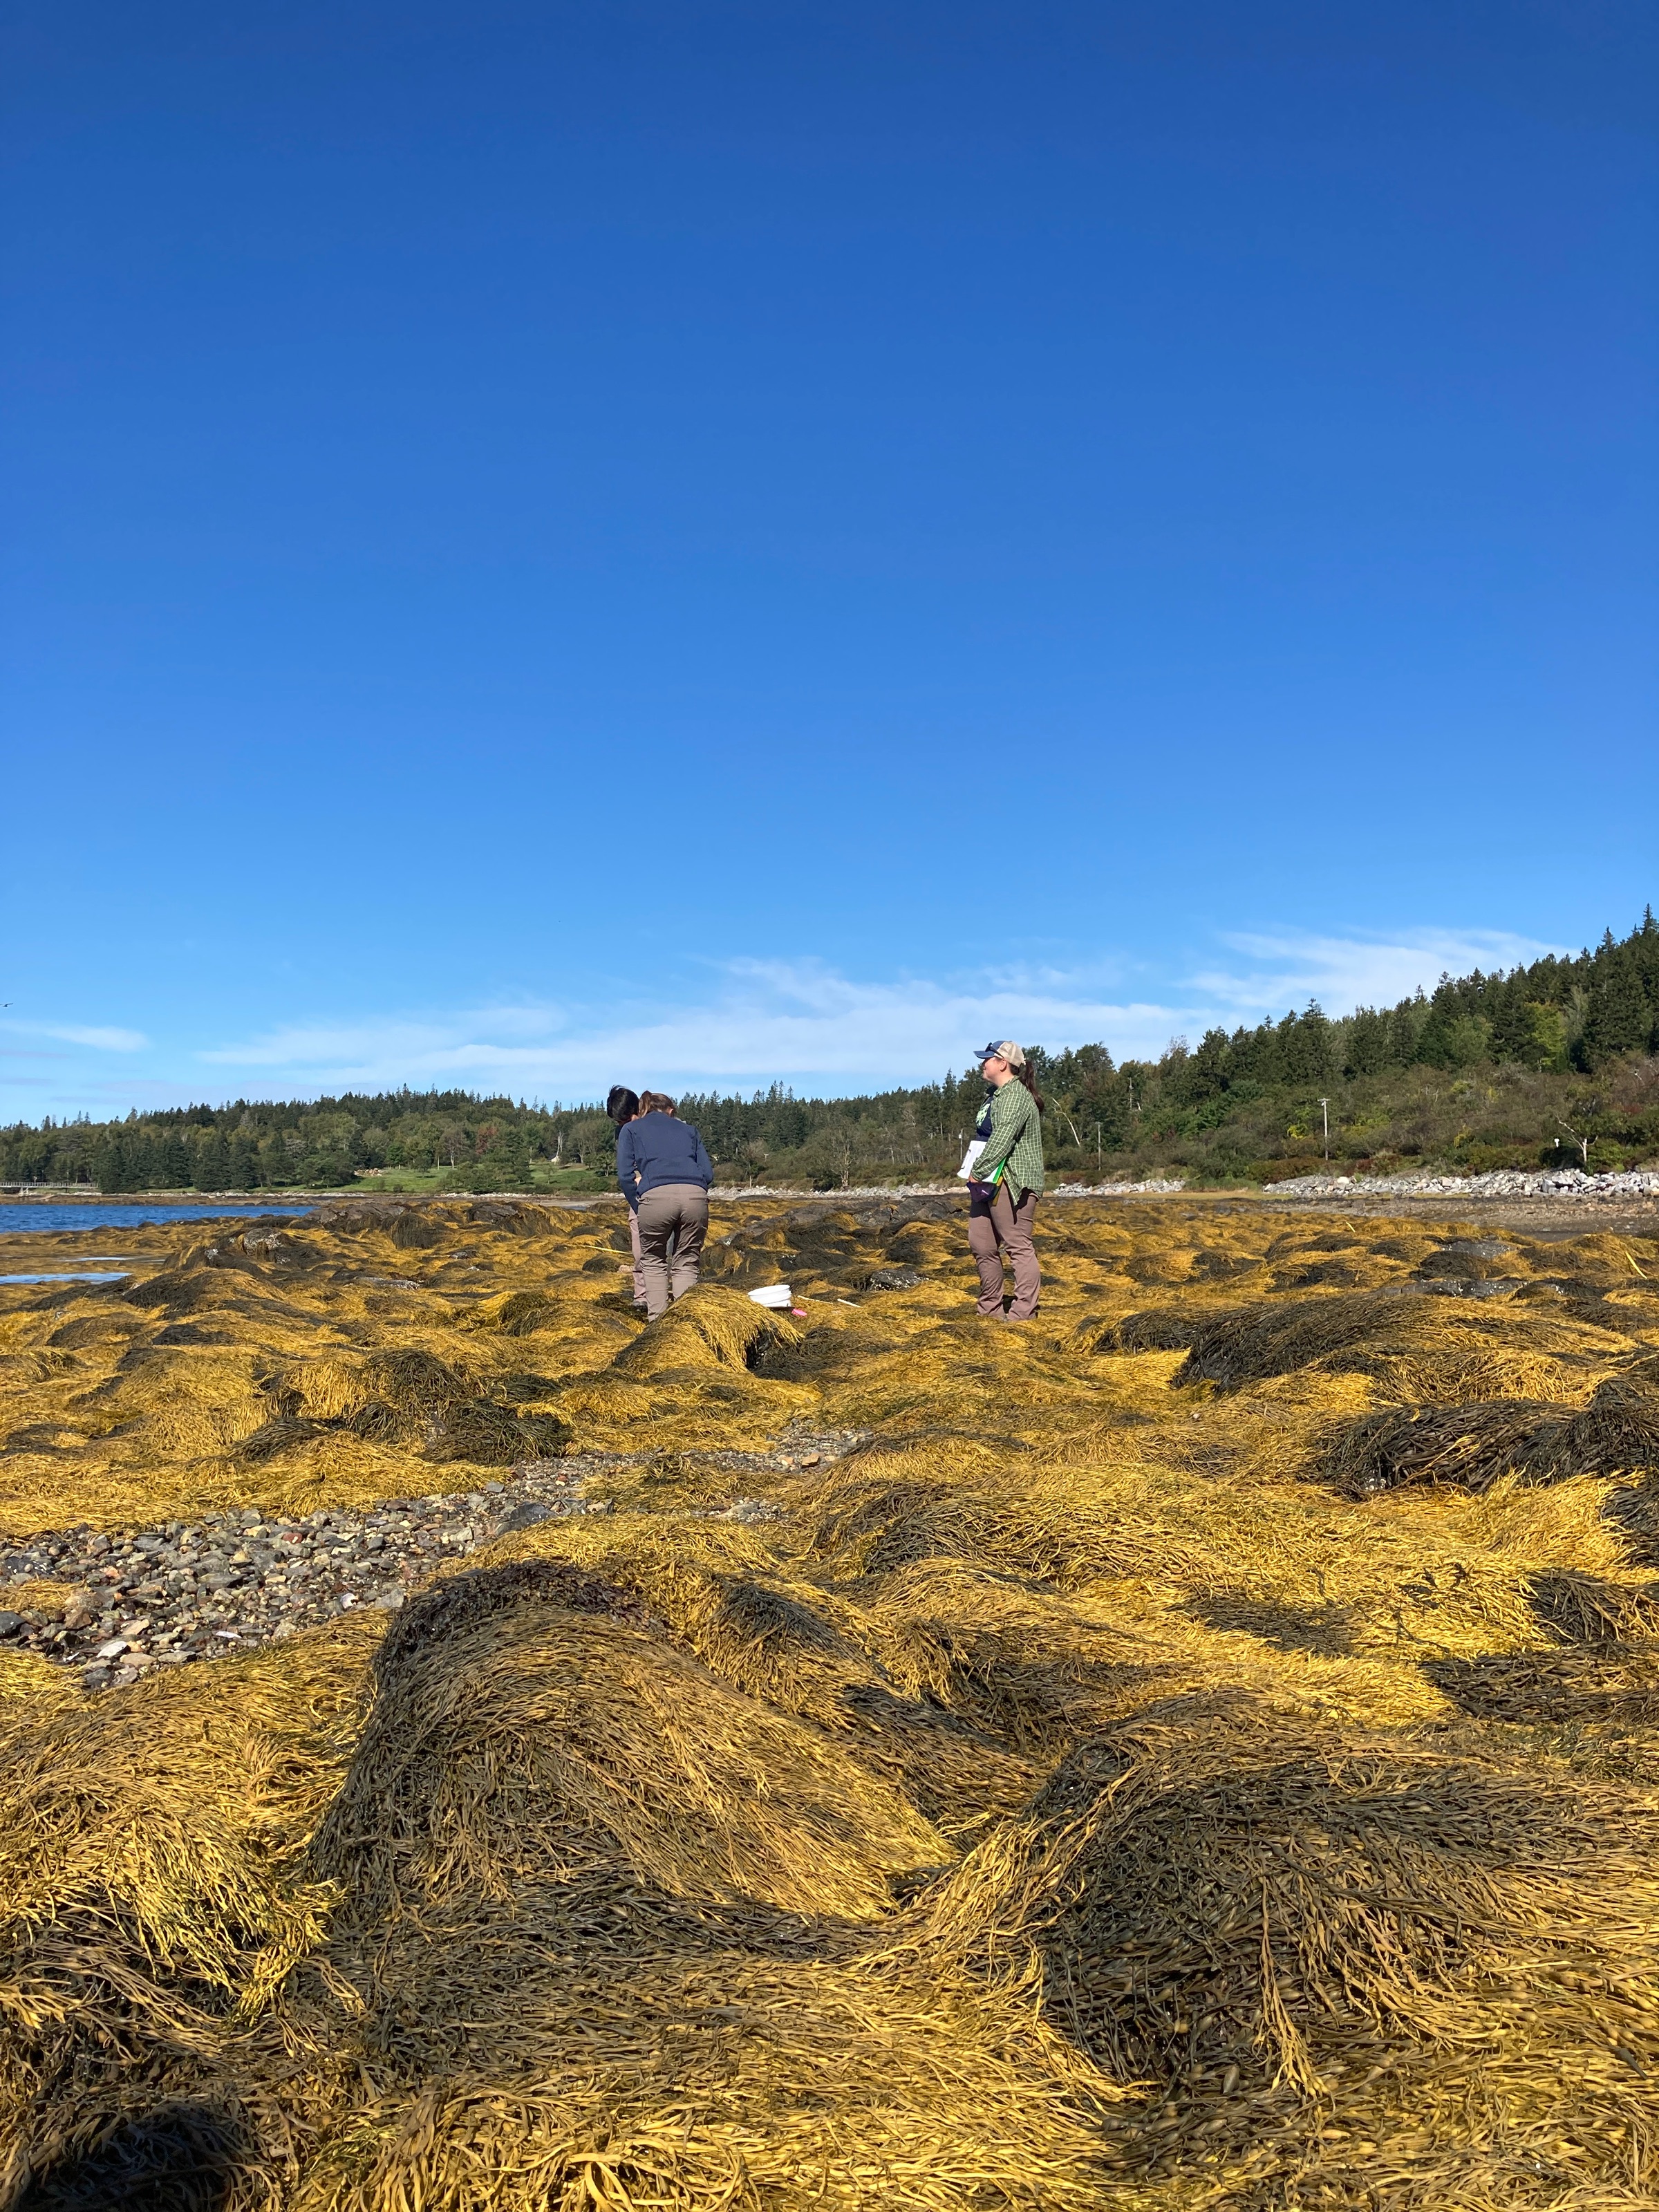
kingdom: Chromista
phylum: Ochrophyta
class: Phaeophyceae
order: Fucales
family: Fucaceae
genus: Ascophyllum
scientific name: Ascophyllum nodosum
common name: Rockweed
